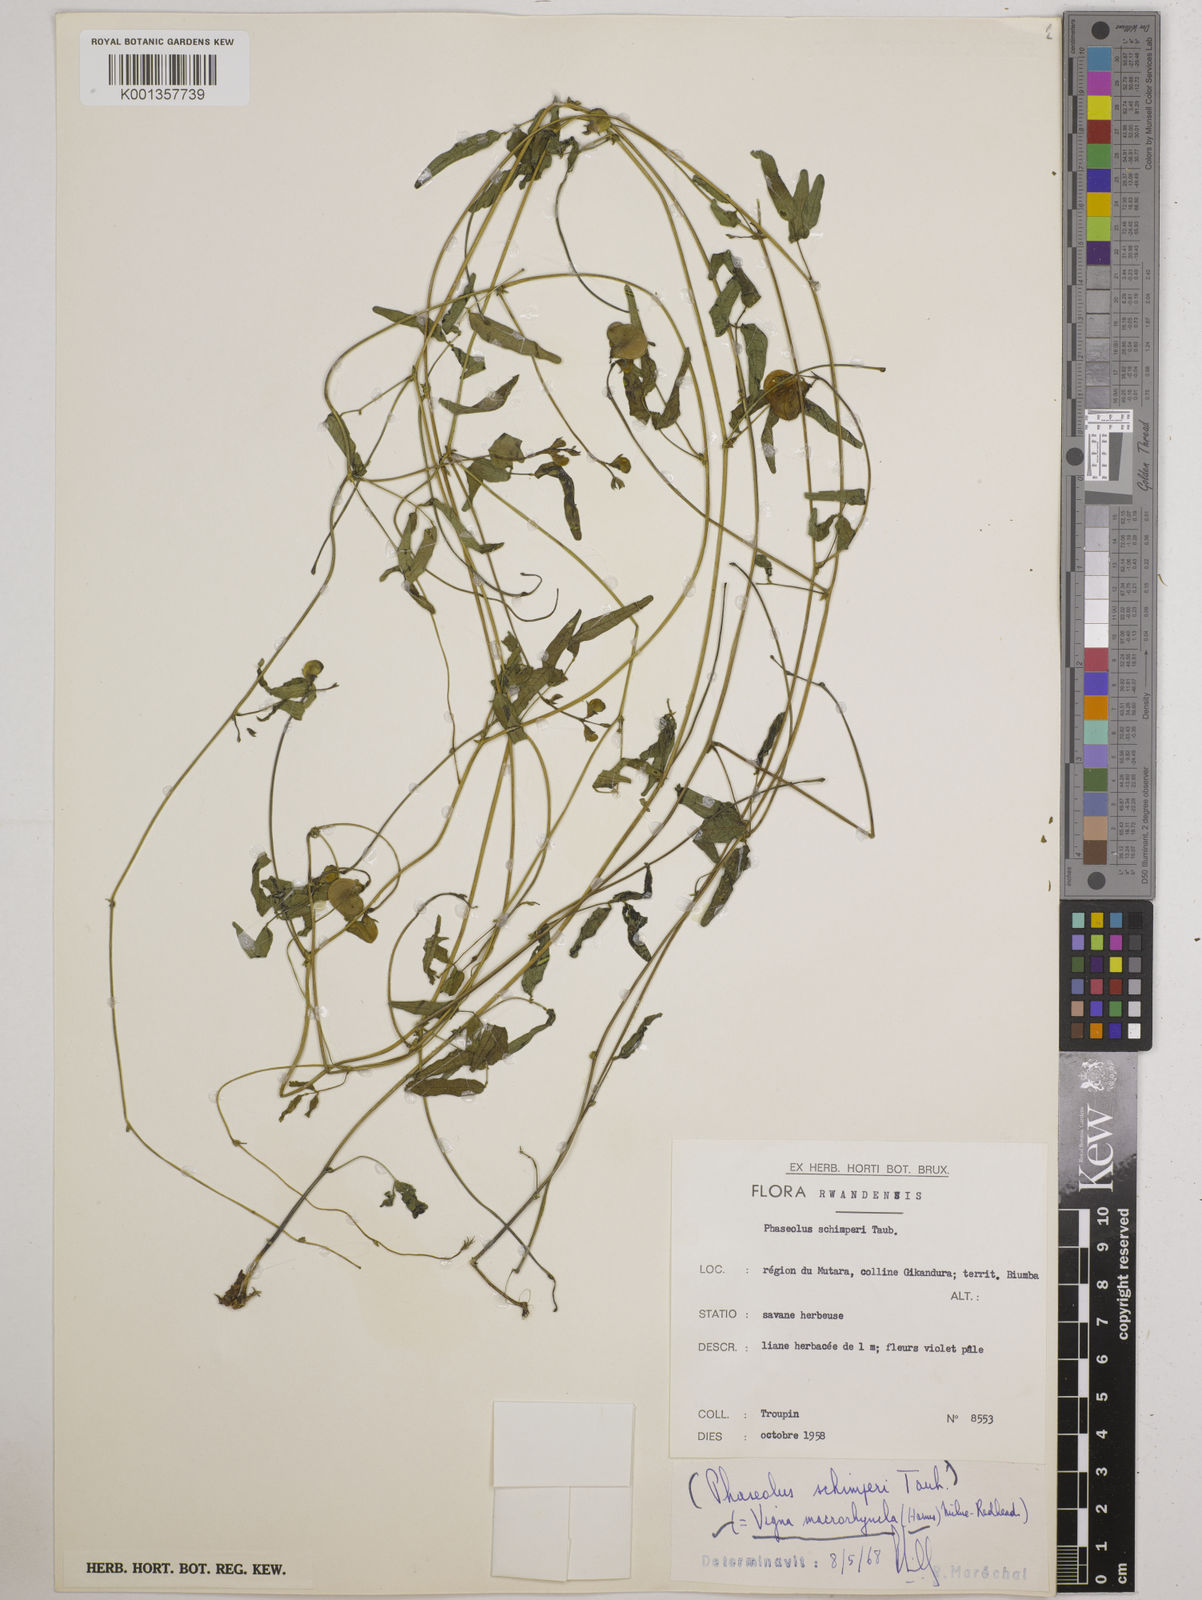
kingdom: Plantae
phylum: Tracheophyta
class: Magnoliopsida
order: Fabales
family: Fabaceae
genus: Wajira
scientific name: Wajira grahamiana
